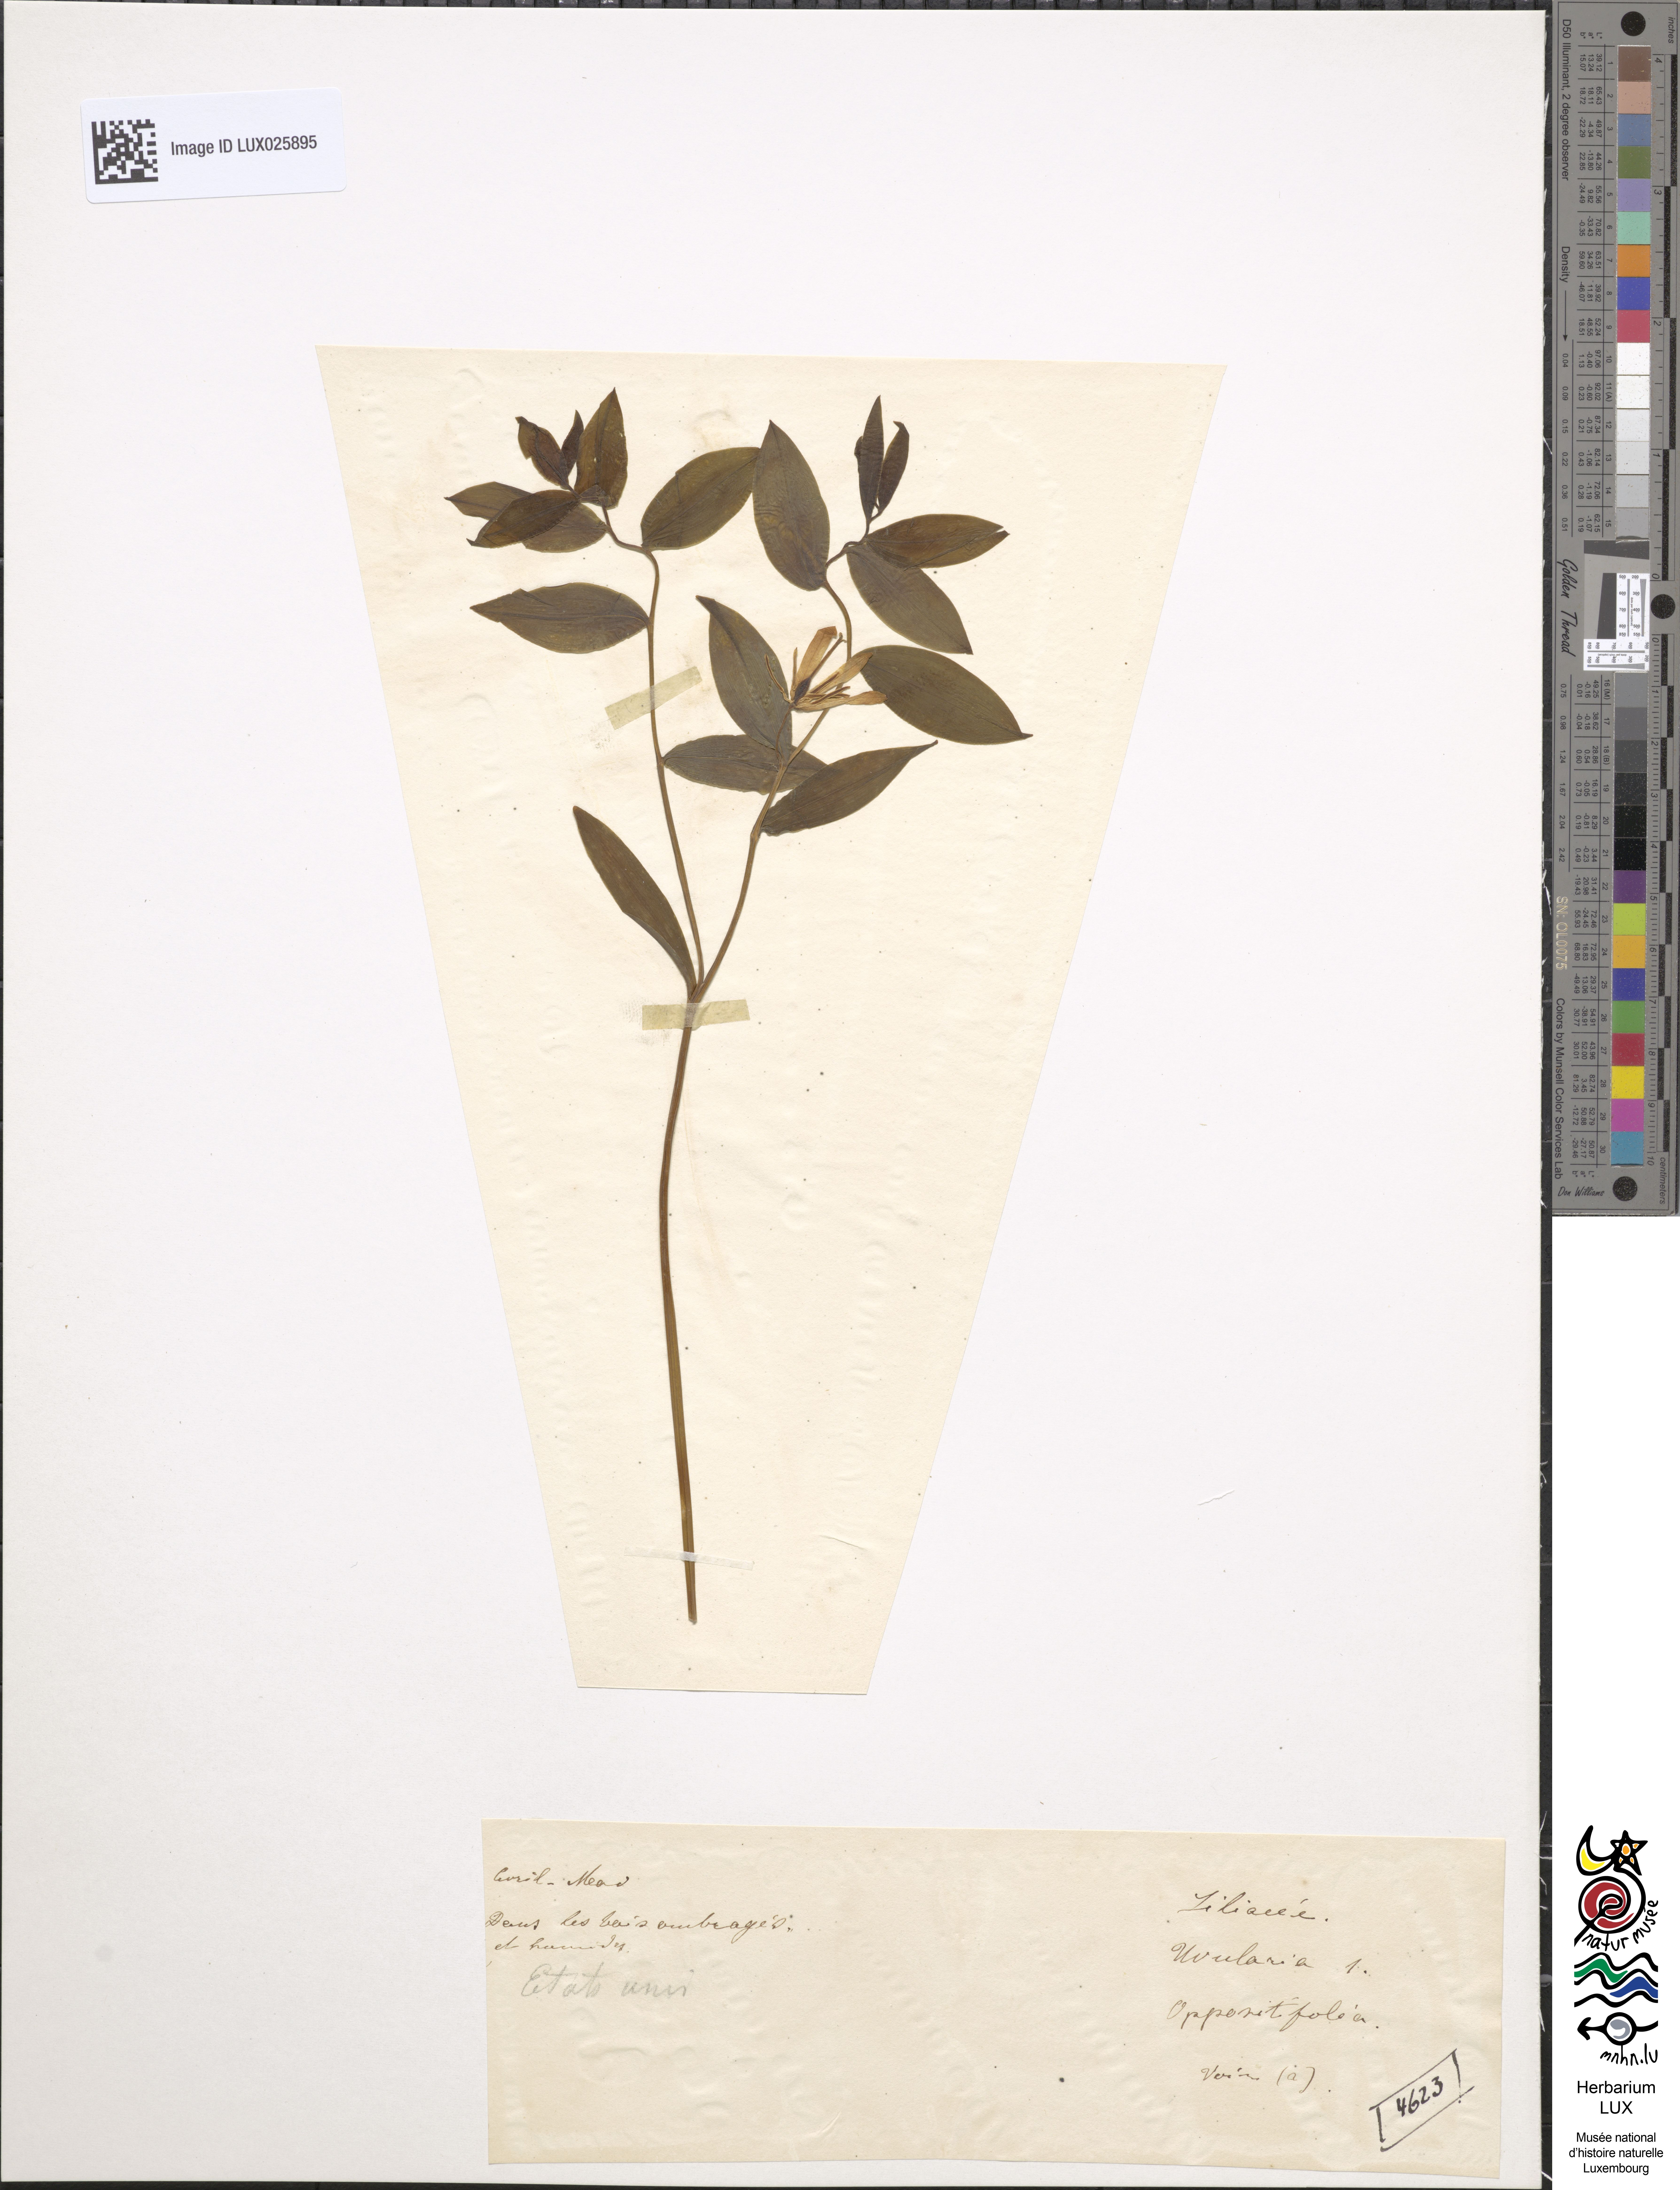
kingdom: Plantae
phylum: Tracheophyta
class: Liliopsida
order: Liliales
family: Colchicaceae
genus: Uvularia
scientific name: Uvularia oppositifolia
